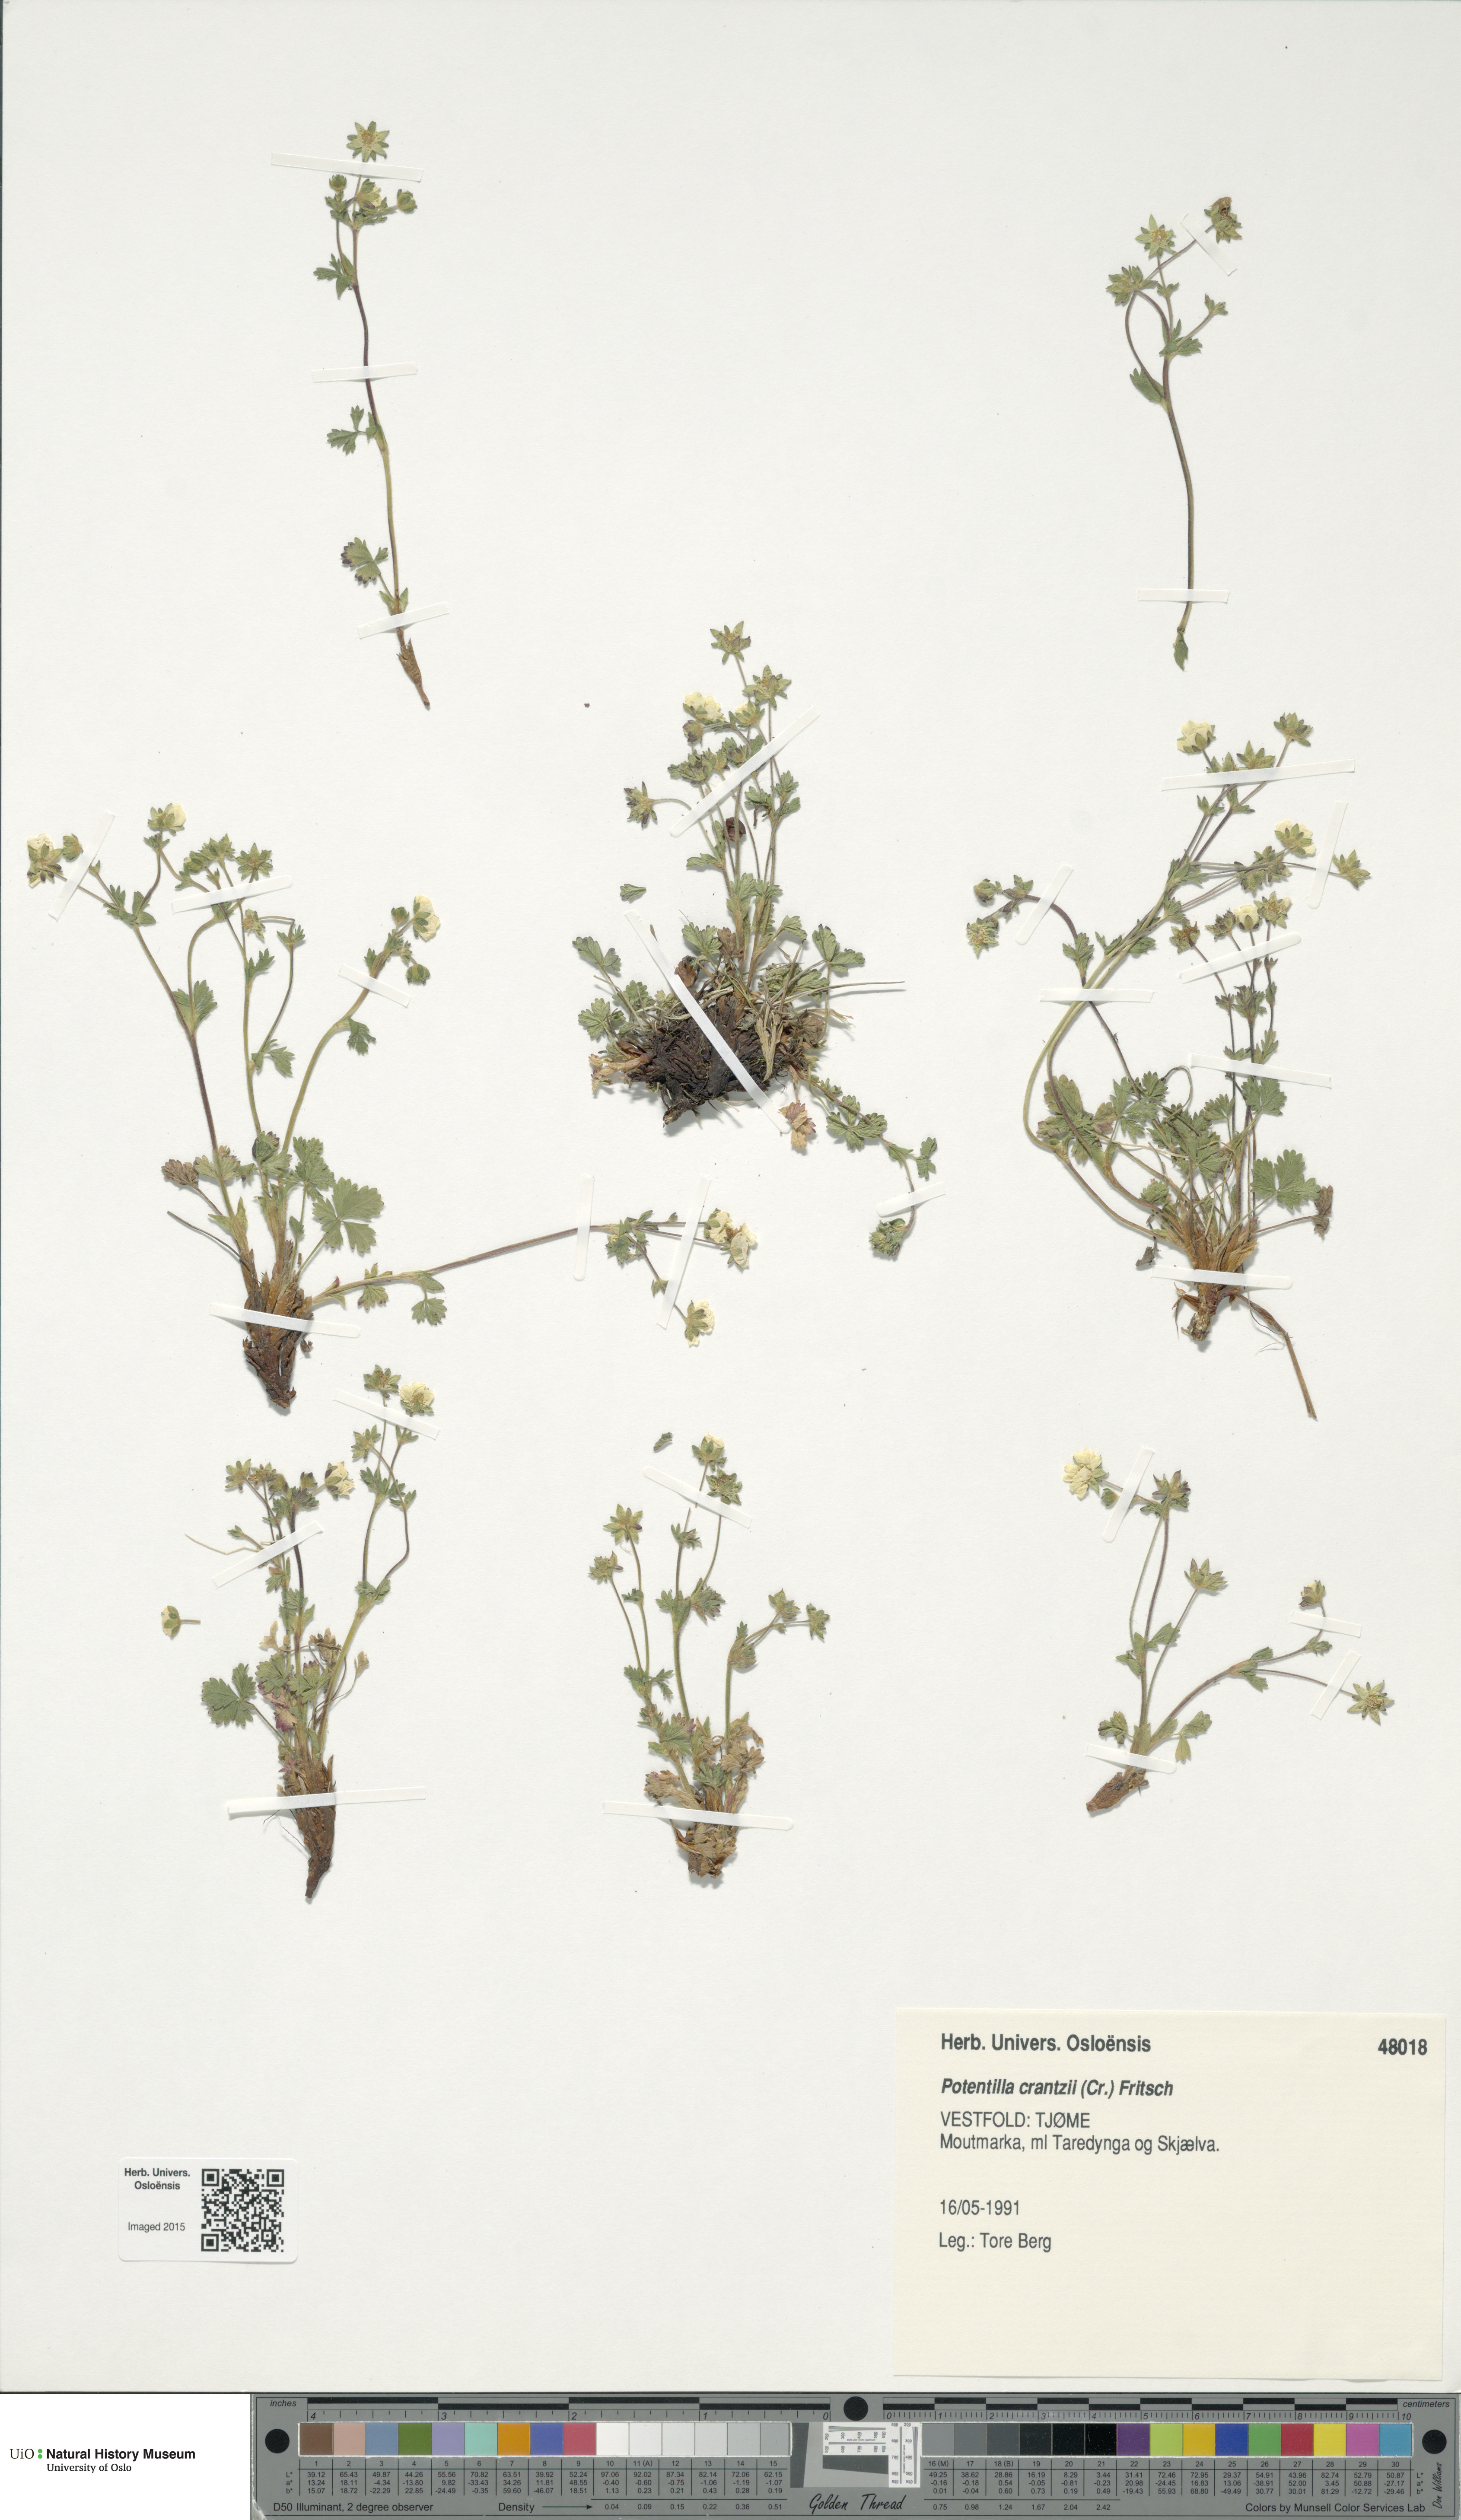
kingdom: Plantae
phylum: Tracheophyta
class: Magnoliopsida
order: Rosales
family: Rosaceae
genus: Potentilla
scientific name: Potentilla crantzii
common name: Alpine cinquefoil
